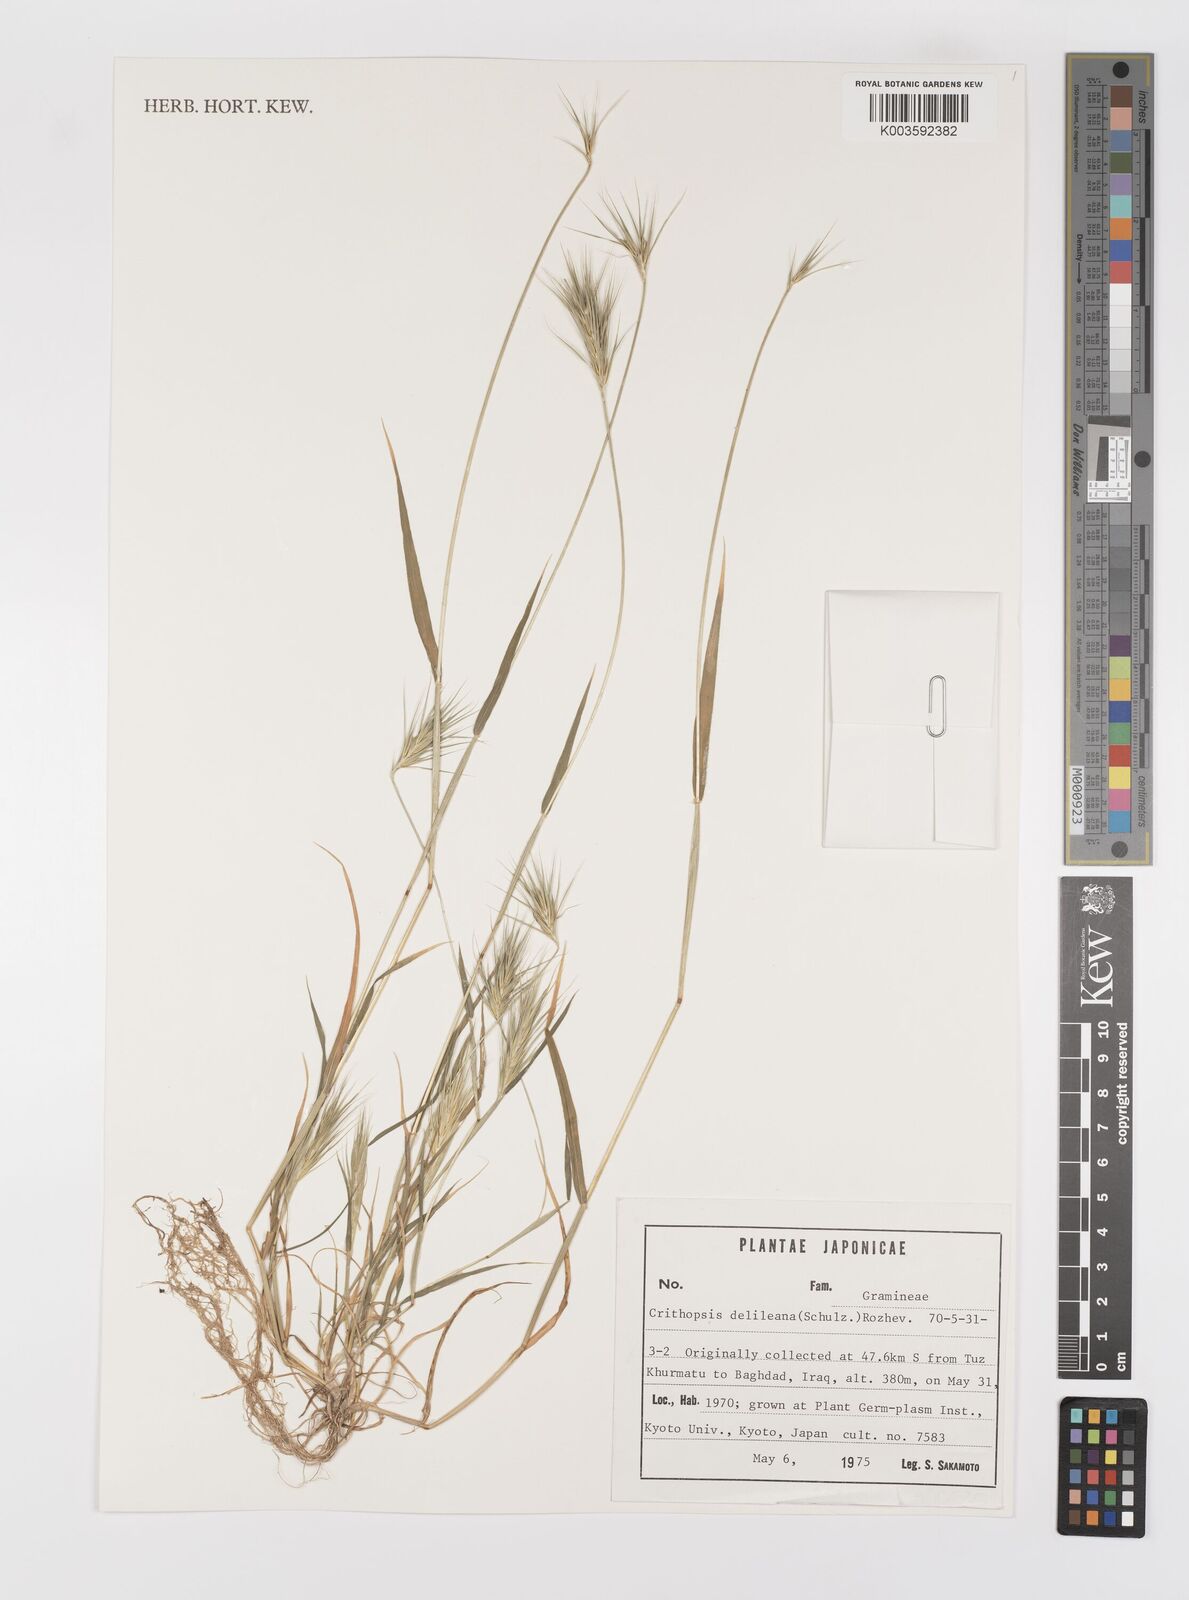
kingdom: Plantae
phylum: Tracheophyta
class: Liliopsida
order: Poales
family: Poaceae
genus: Crithopsis
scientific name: Crithopsis delileana
